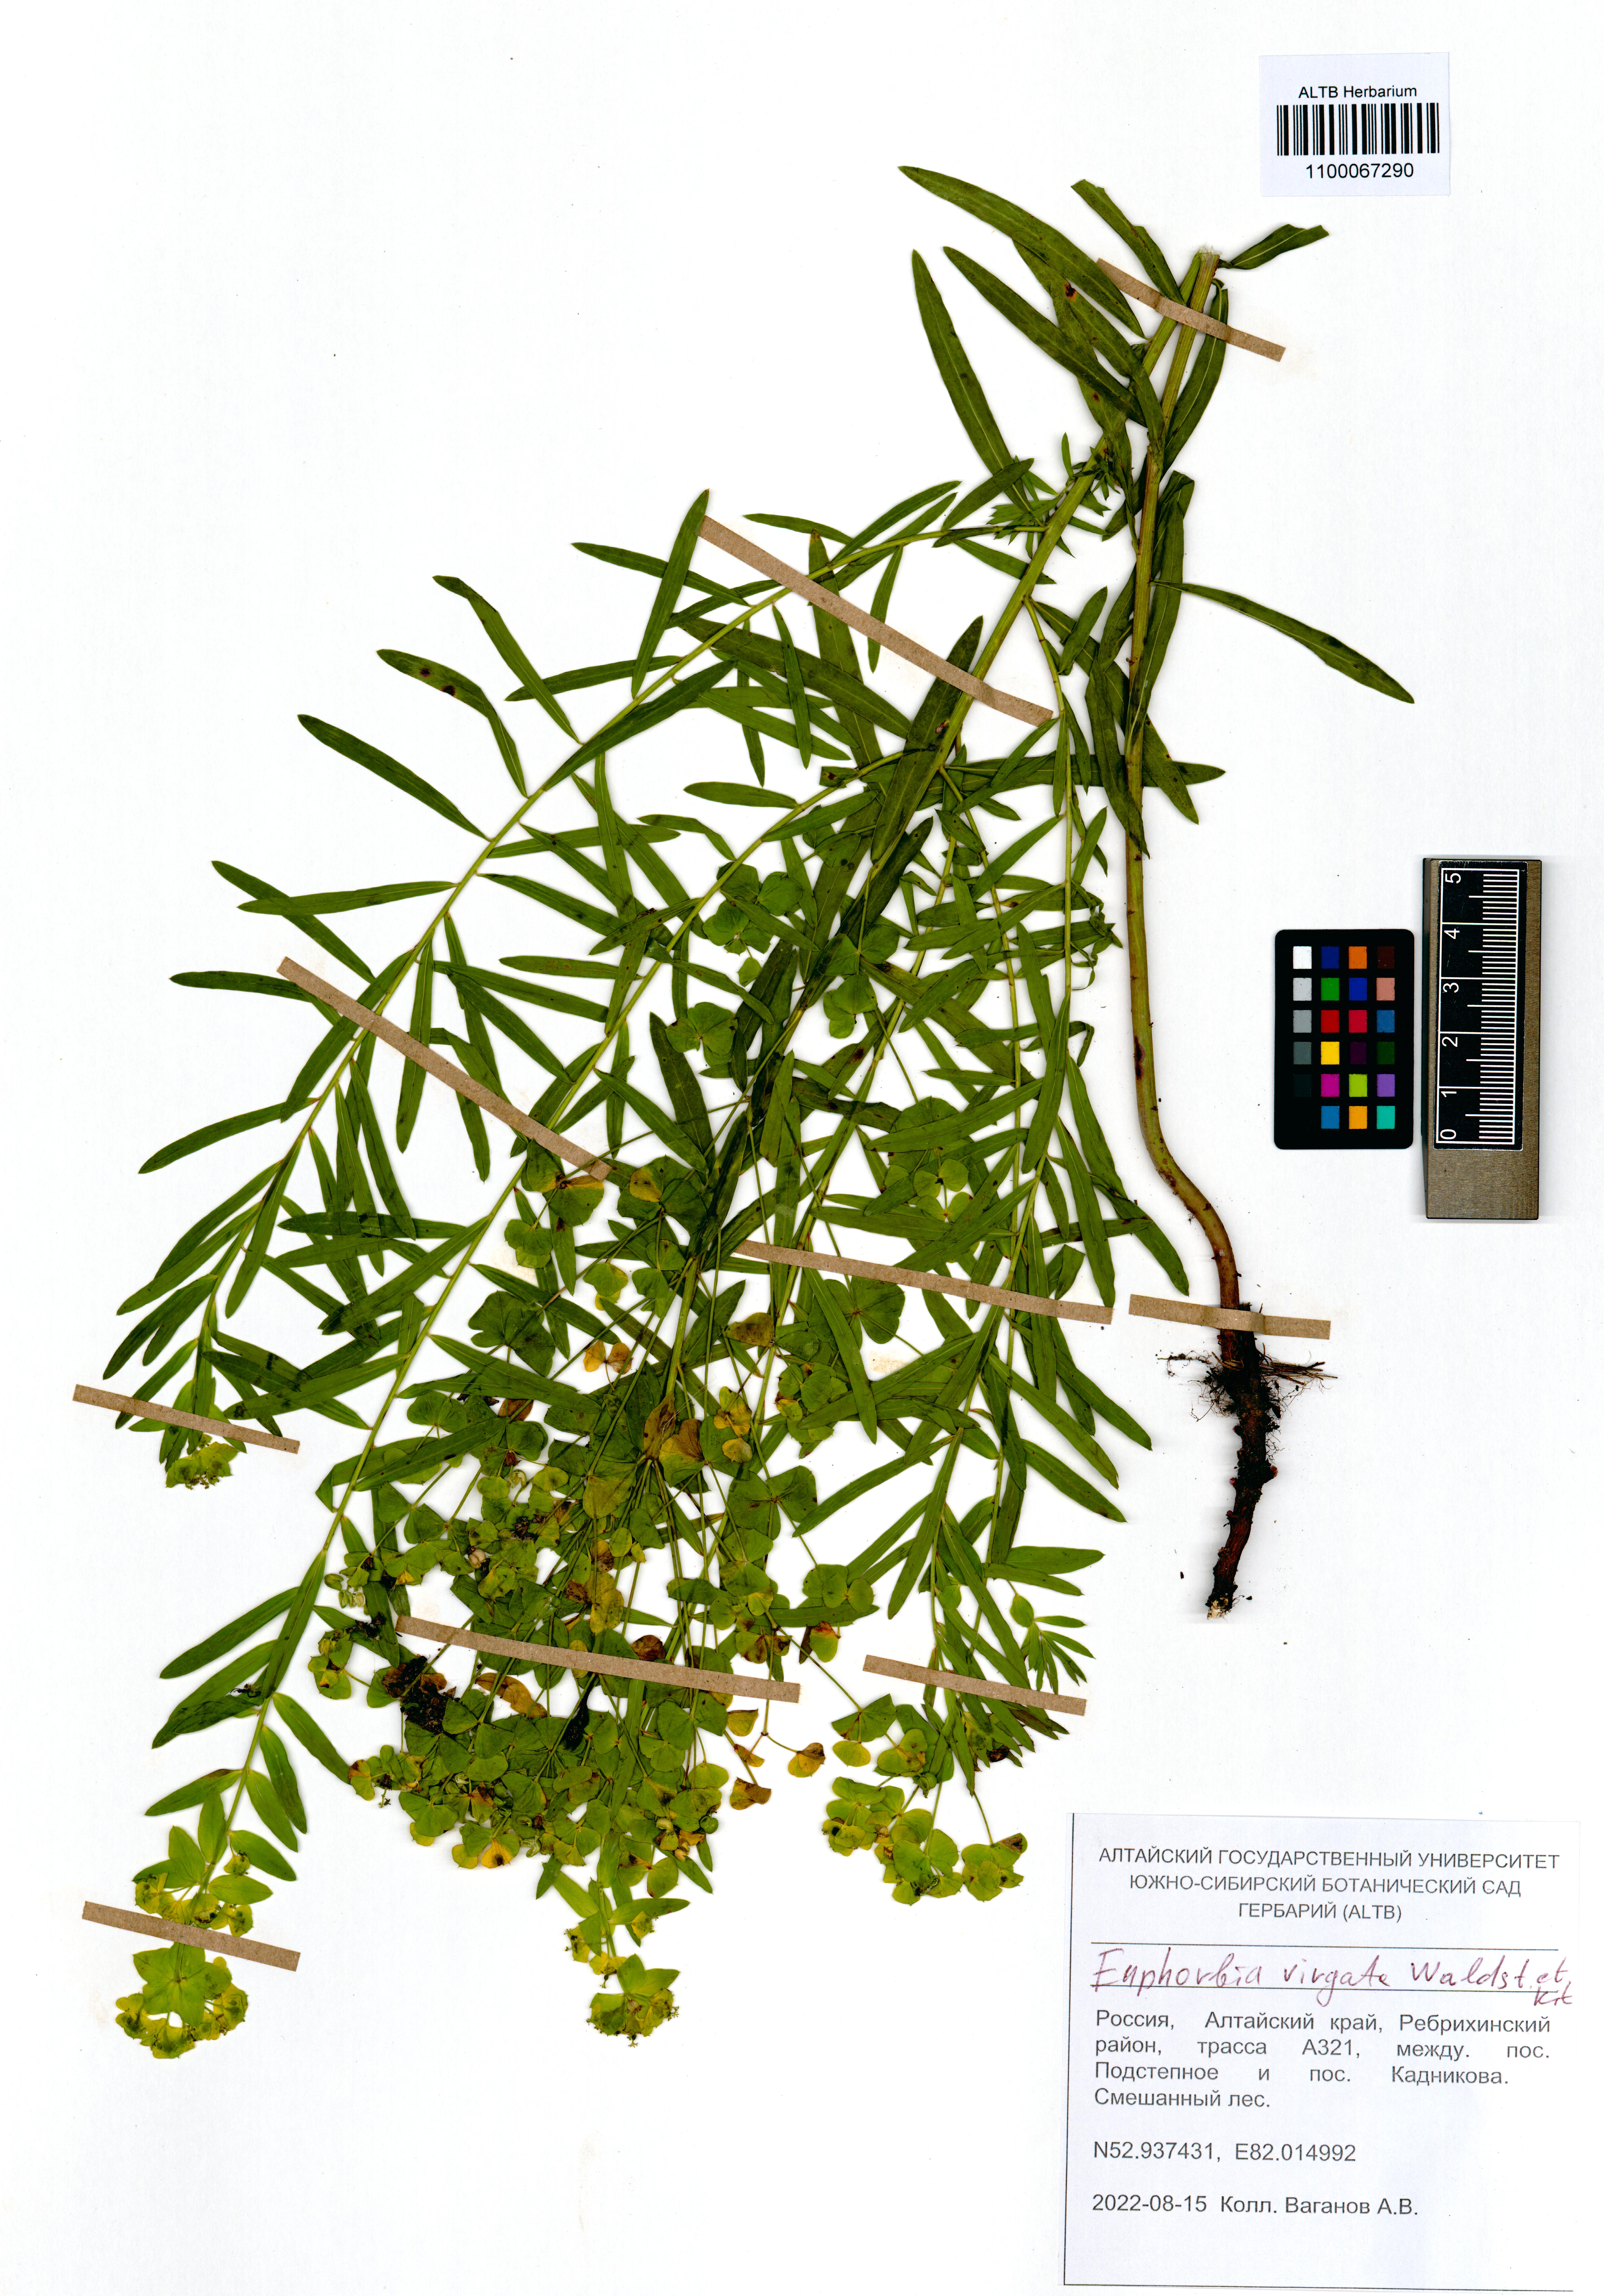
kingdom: Plantae
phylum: Tracheophyta
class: Magnoliopsida
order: Malpighiales
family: Euphorbiaceae
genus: Euphorbia
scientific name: Euphorbia virgata
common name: Leafy spurge
